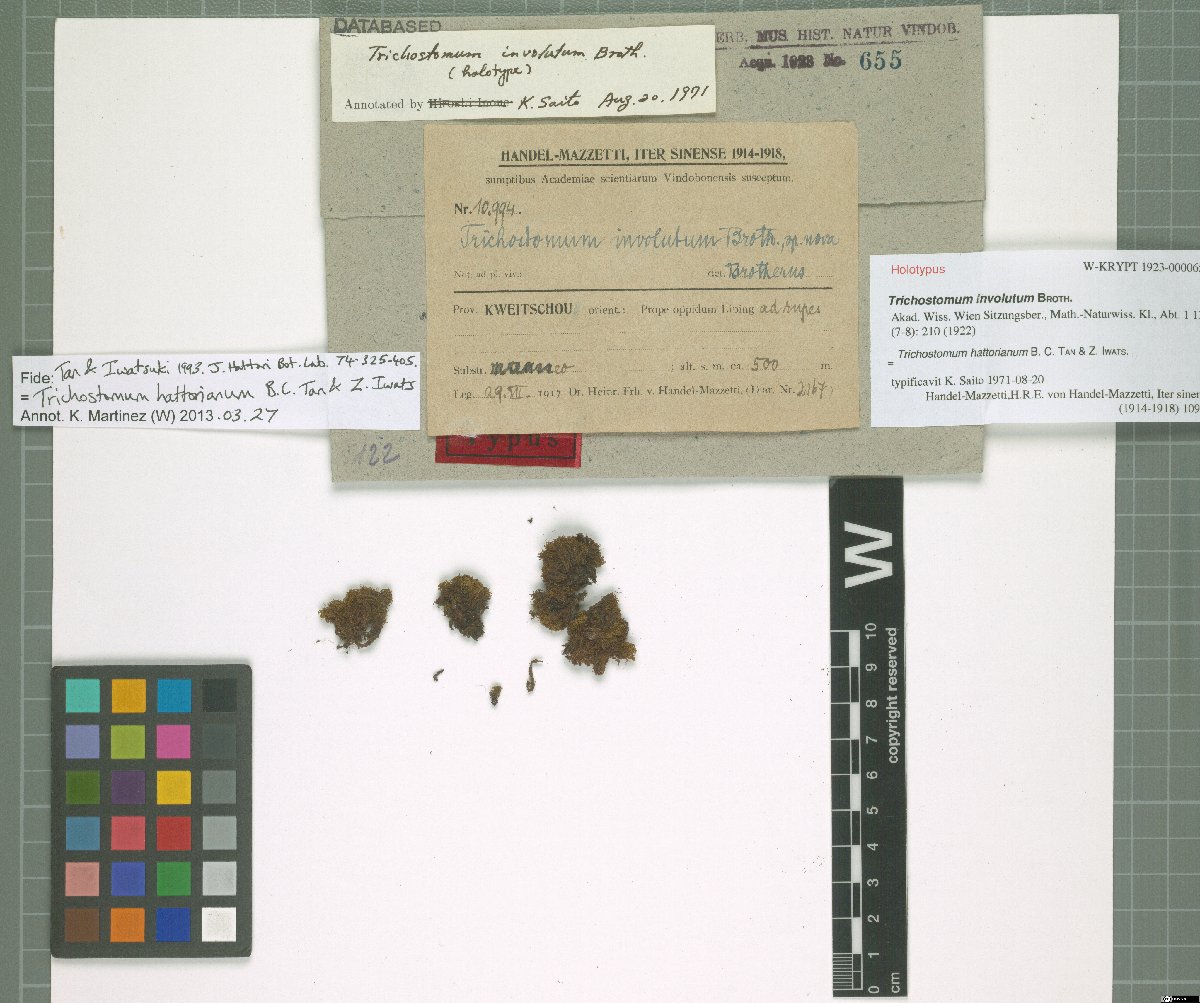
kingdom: Plantae
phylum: Bryophyta
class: Bryopsida
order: Pottiales
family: Pottiaceae
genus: Pachyneuropsis
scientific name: Pachyneuropsis perinvoluta
